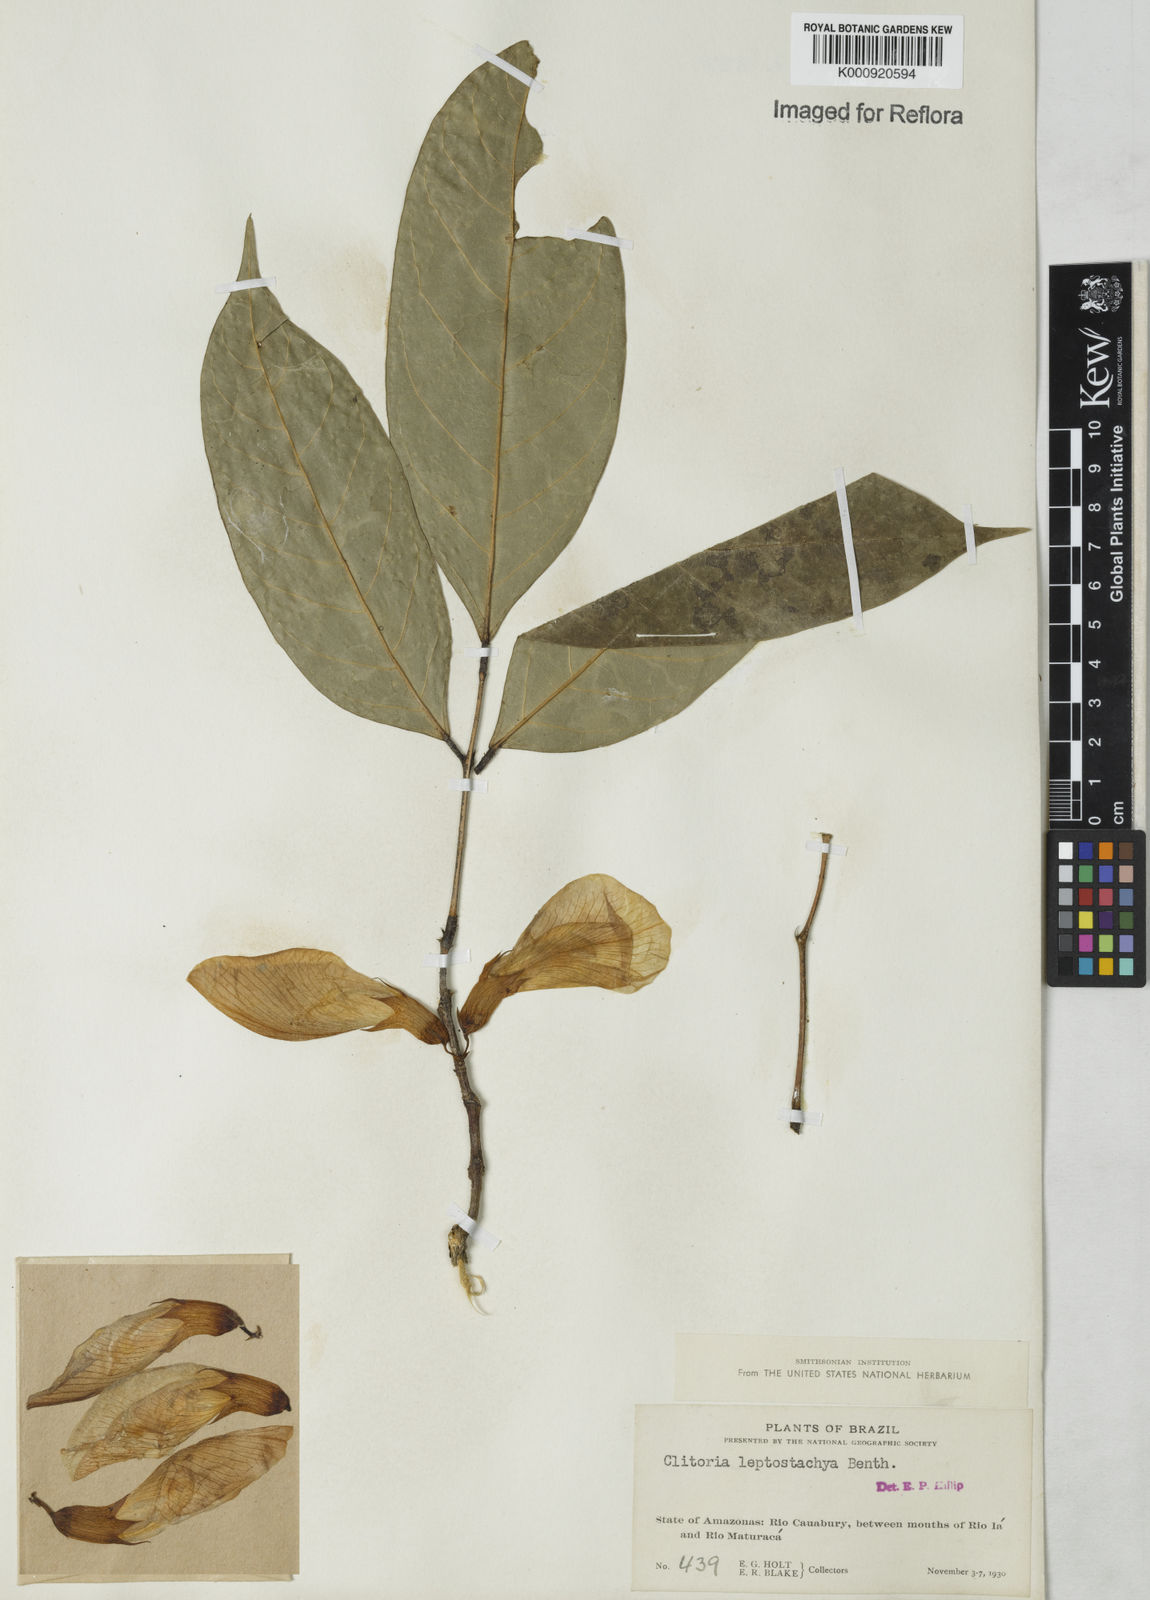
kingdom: Plantae
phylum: Tracheophyta
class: Magnoliopsida
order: Fabales
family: Fabaceae
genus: Clitoria
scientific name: Clitoria leptostachya
